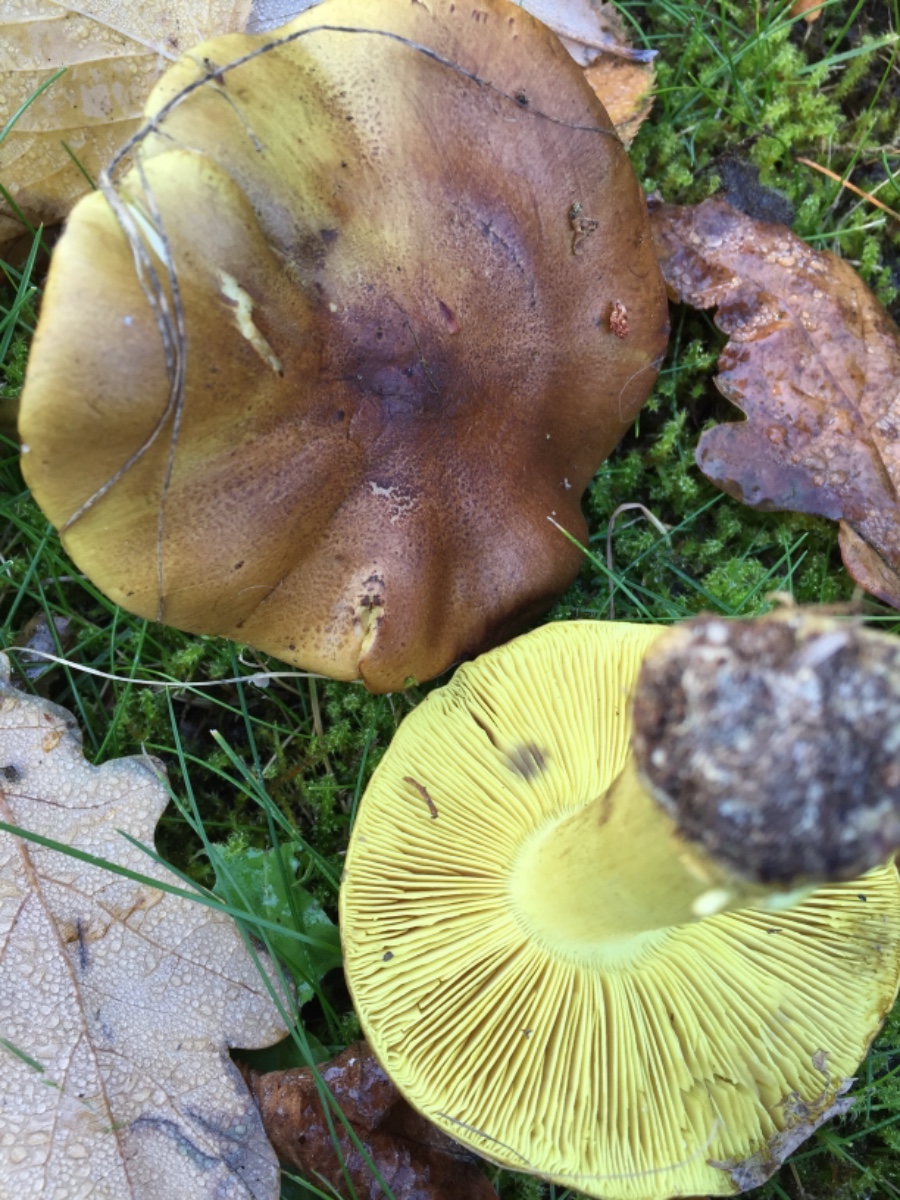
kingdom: Fungi
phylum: Basidiomycota
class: Agaricomycetes
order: Agaricales
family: Tricholomataceae
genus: Tricholoma
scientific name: Tricholoma equestre
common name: ægte ridderhat
